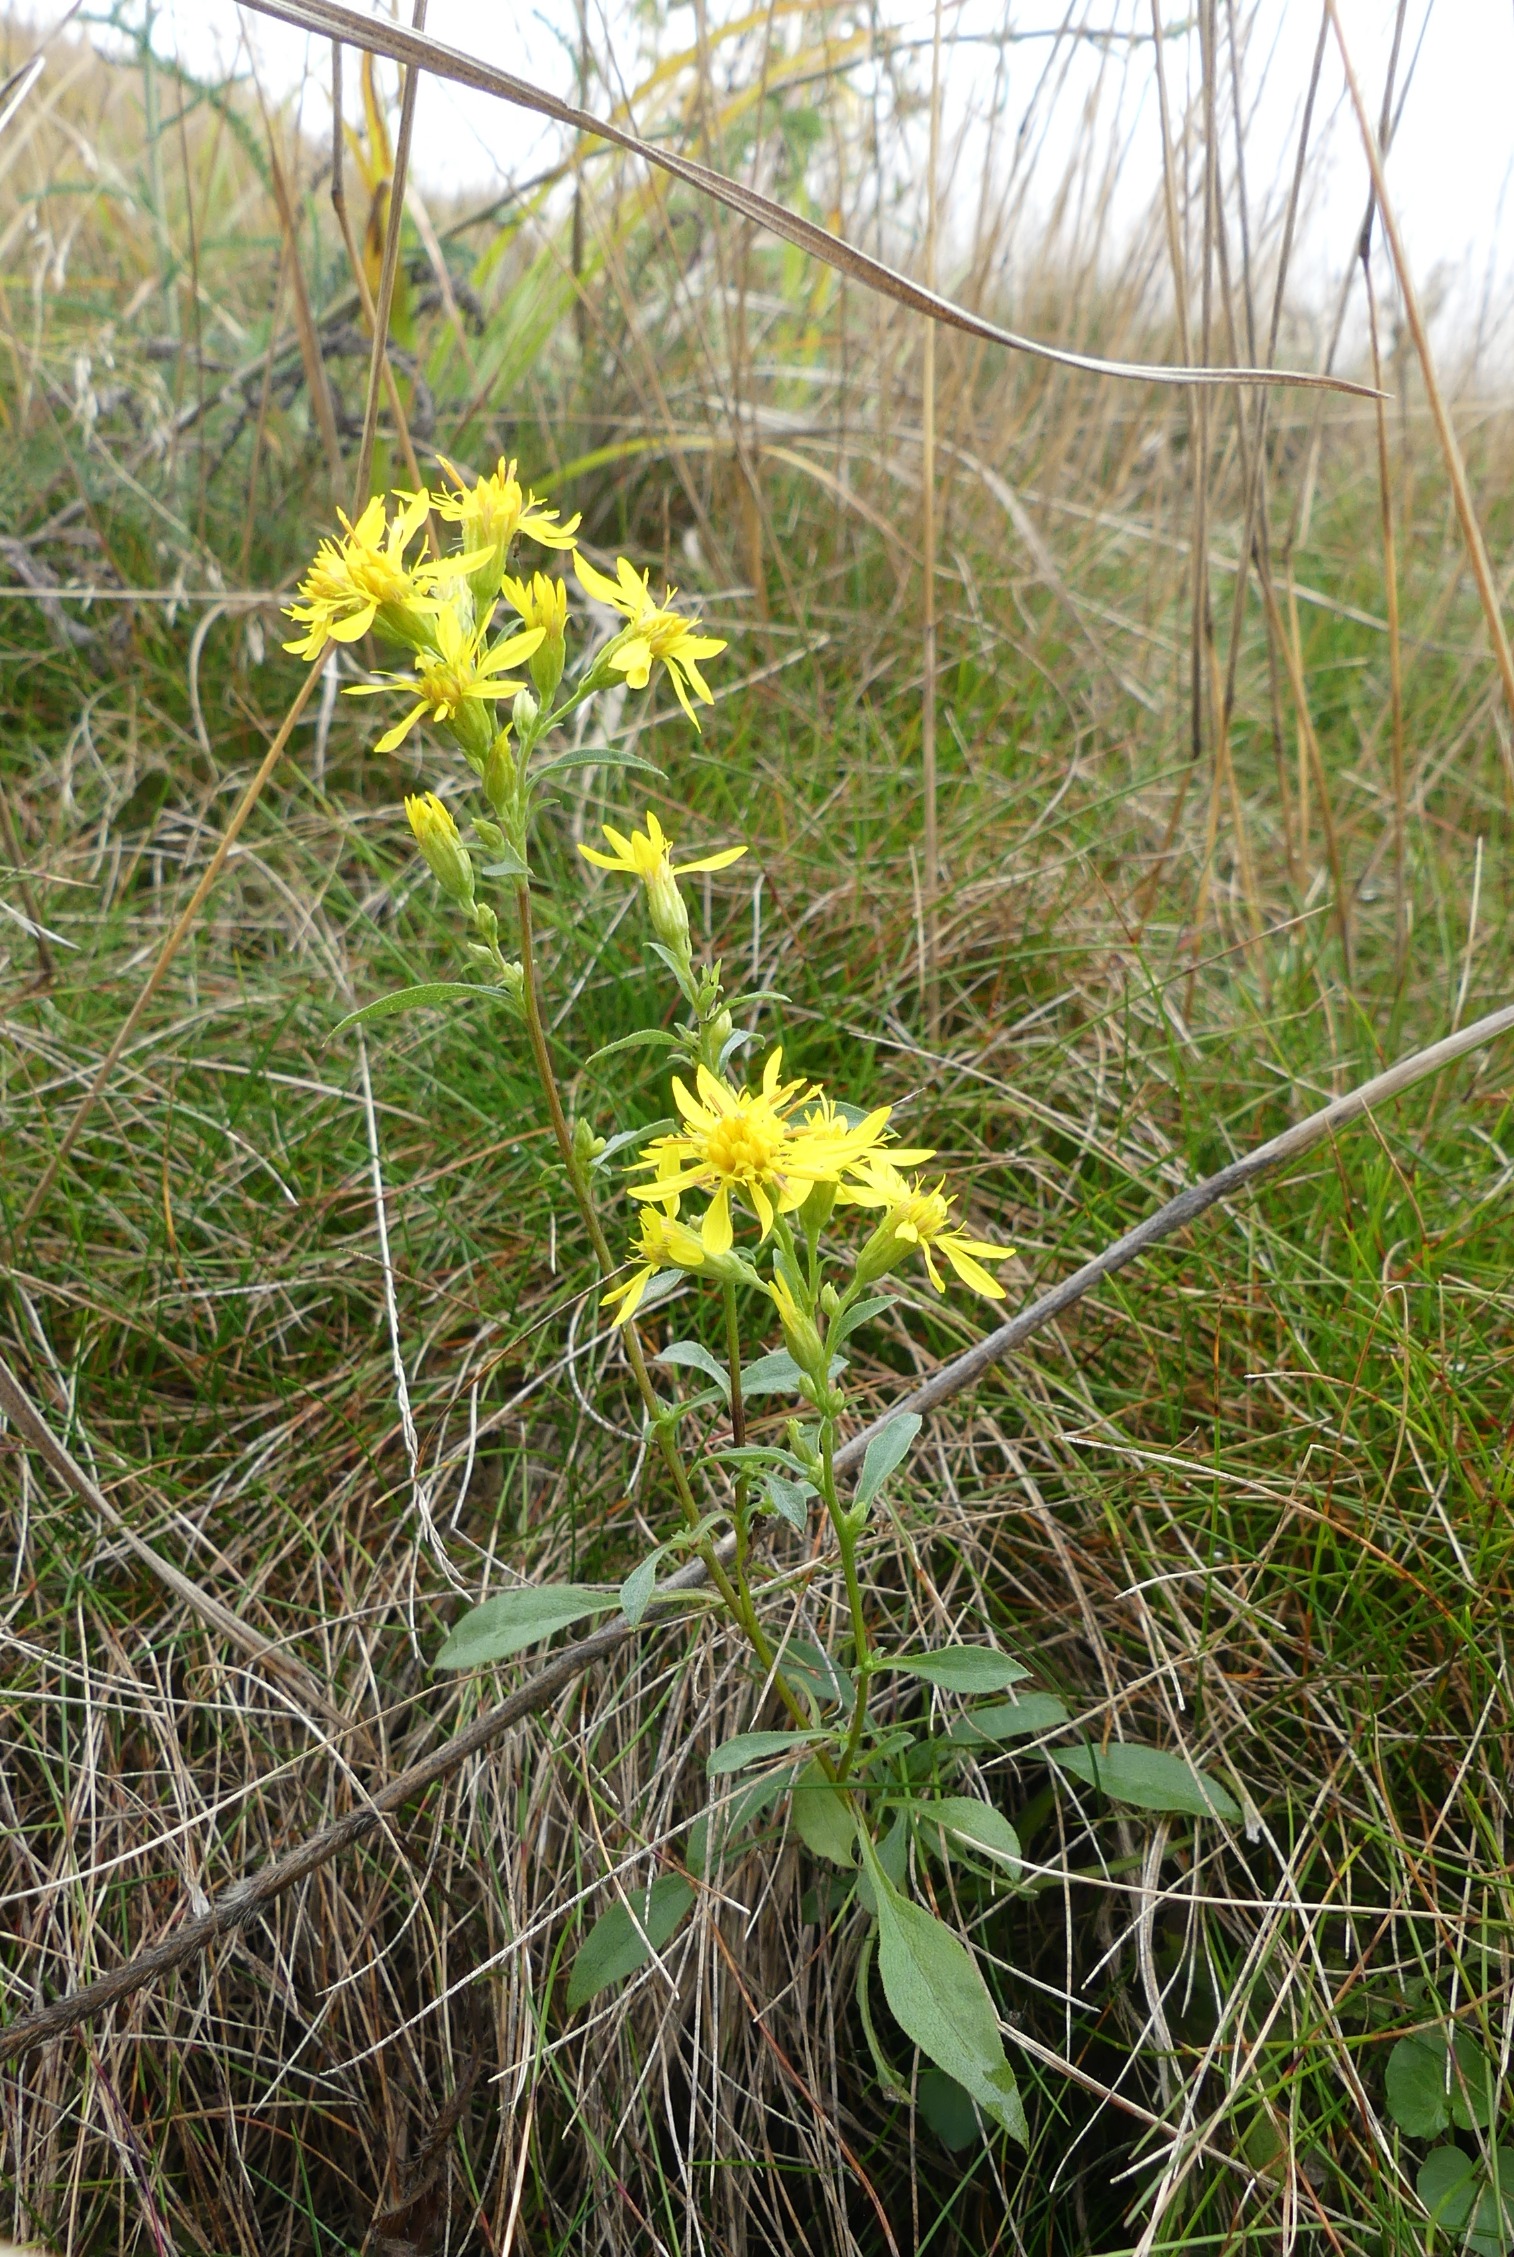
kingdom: Plantae
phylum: Tracheophyta
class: Magnoliopsida
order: Asterales
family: Asteraceae
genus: Solidago
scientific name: Solidago virgaurea
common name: Almindelig gyldenris
